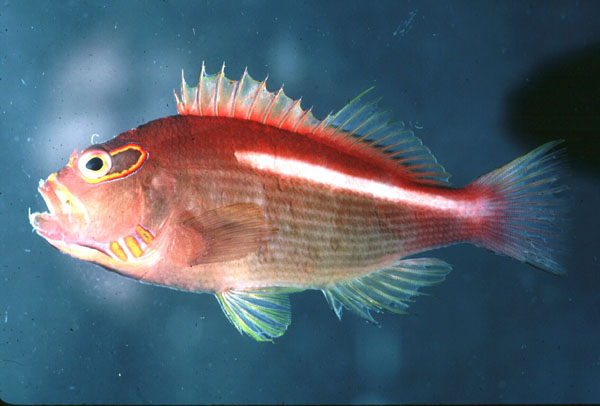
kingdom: Animalia
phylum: Chordata
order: Perciformes
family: Cirrhitidae
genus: Paracirrhites
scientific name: Paracirrhites arcatus
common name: Arc-eye hawkfish
